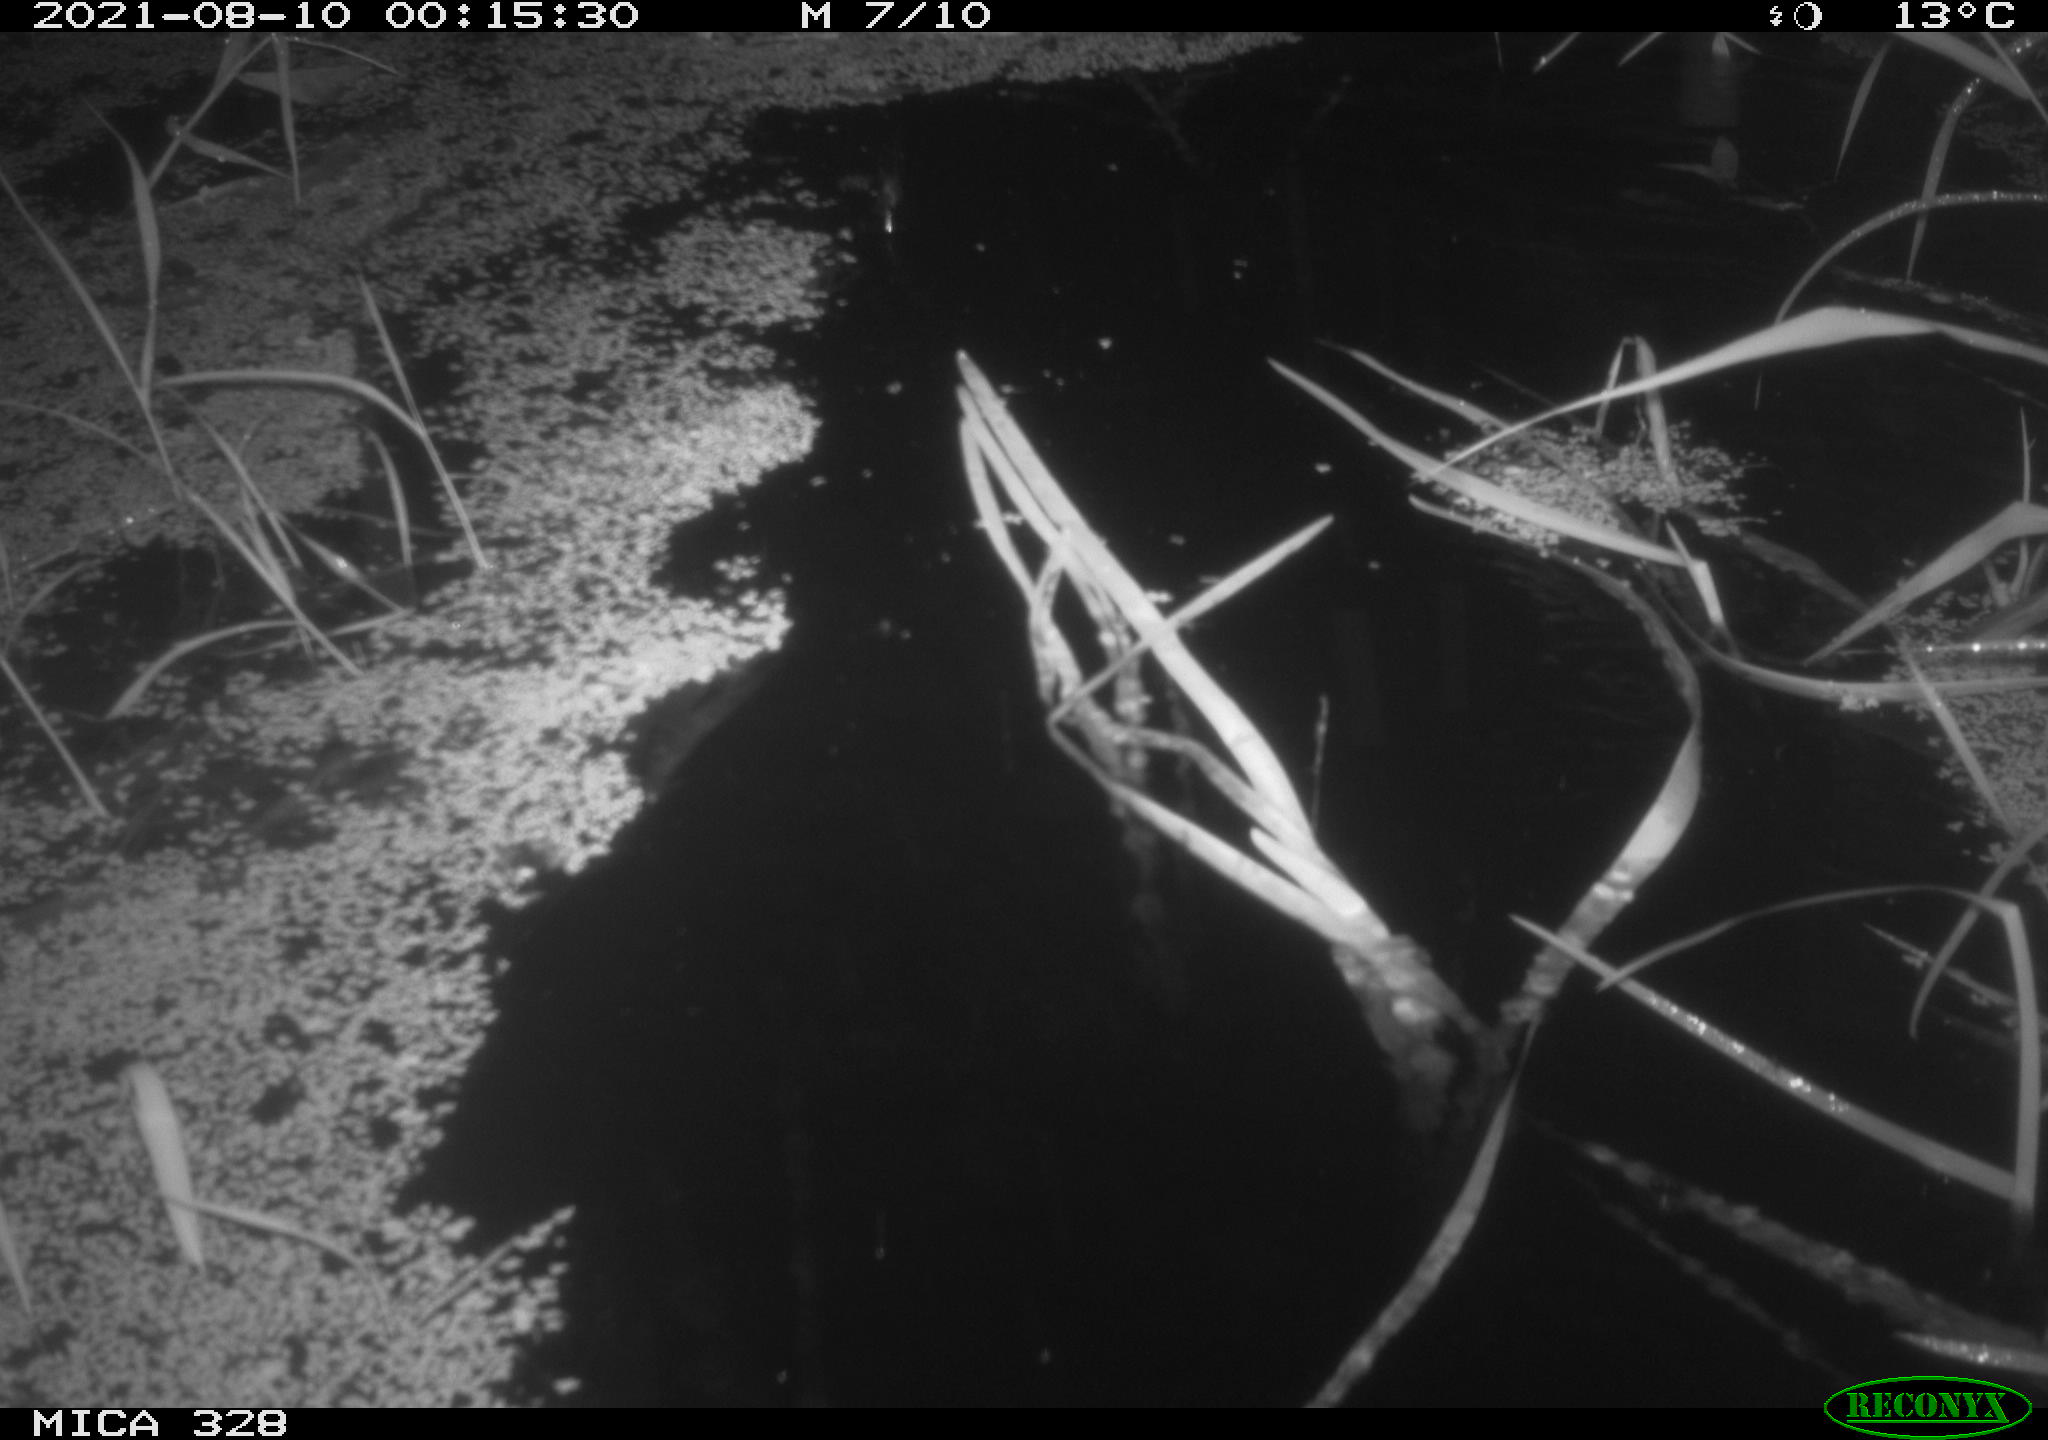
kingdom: Animalia
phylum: Chordata
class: Mammalia
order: Rodentia
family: Cricetidae
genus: Ondatra
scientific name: Ondatra zibethicus
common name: Muskrat
